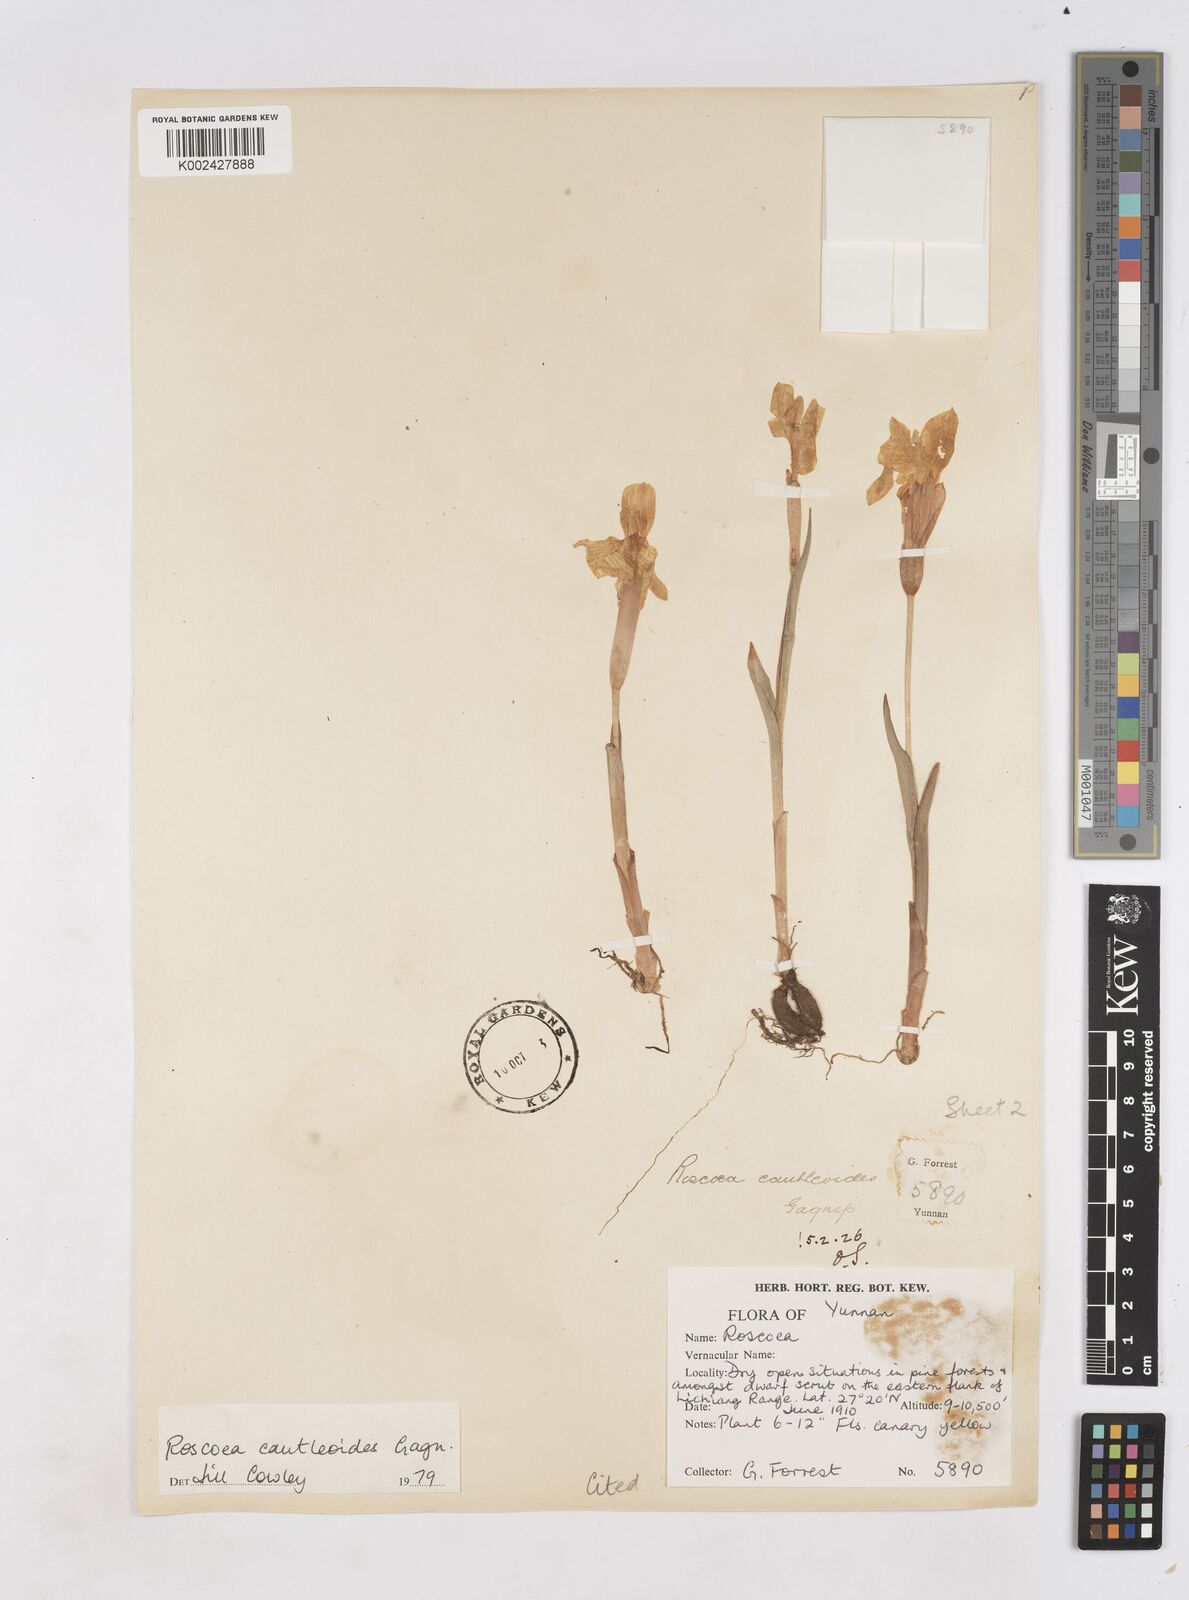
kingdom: Plantae
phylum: Tracheophyta
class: Liliopsida
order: Zingiberales
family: Zingiberaceae
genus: Roscoea
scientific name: Roscoea cautleyoides
